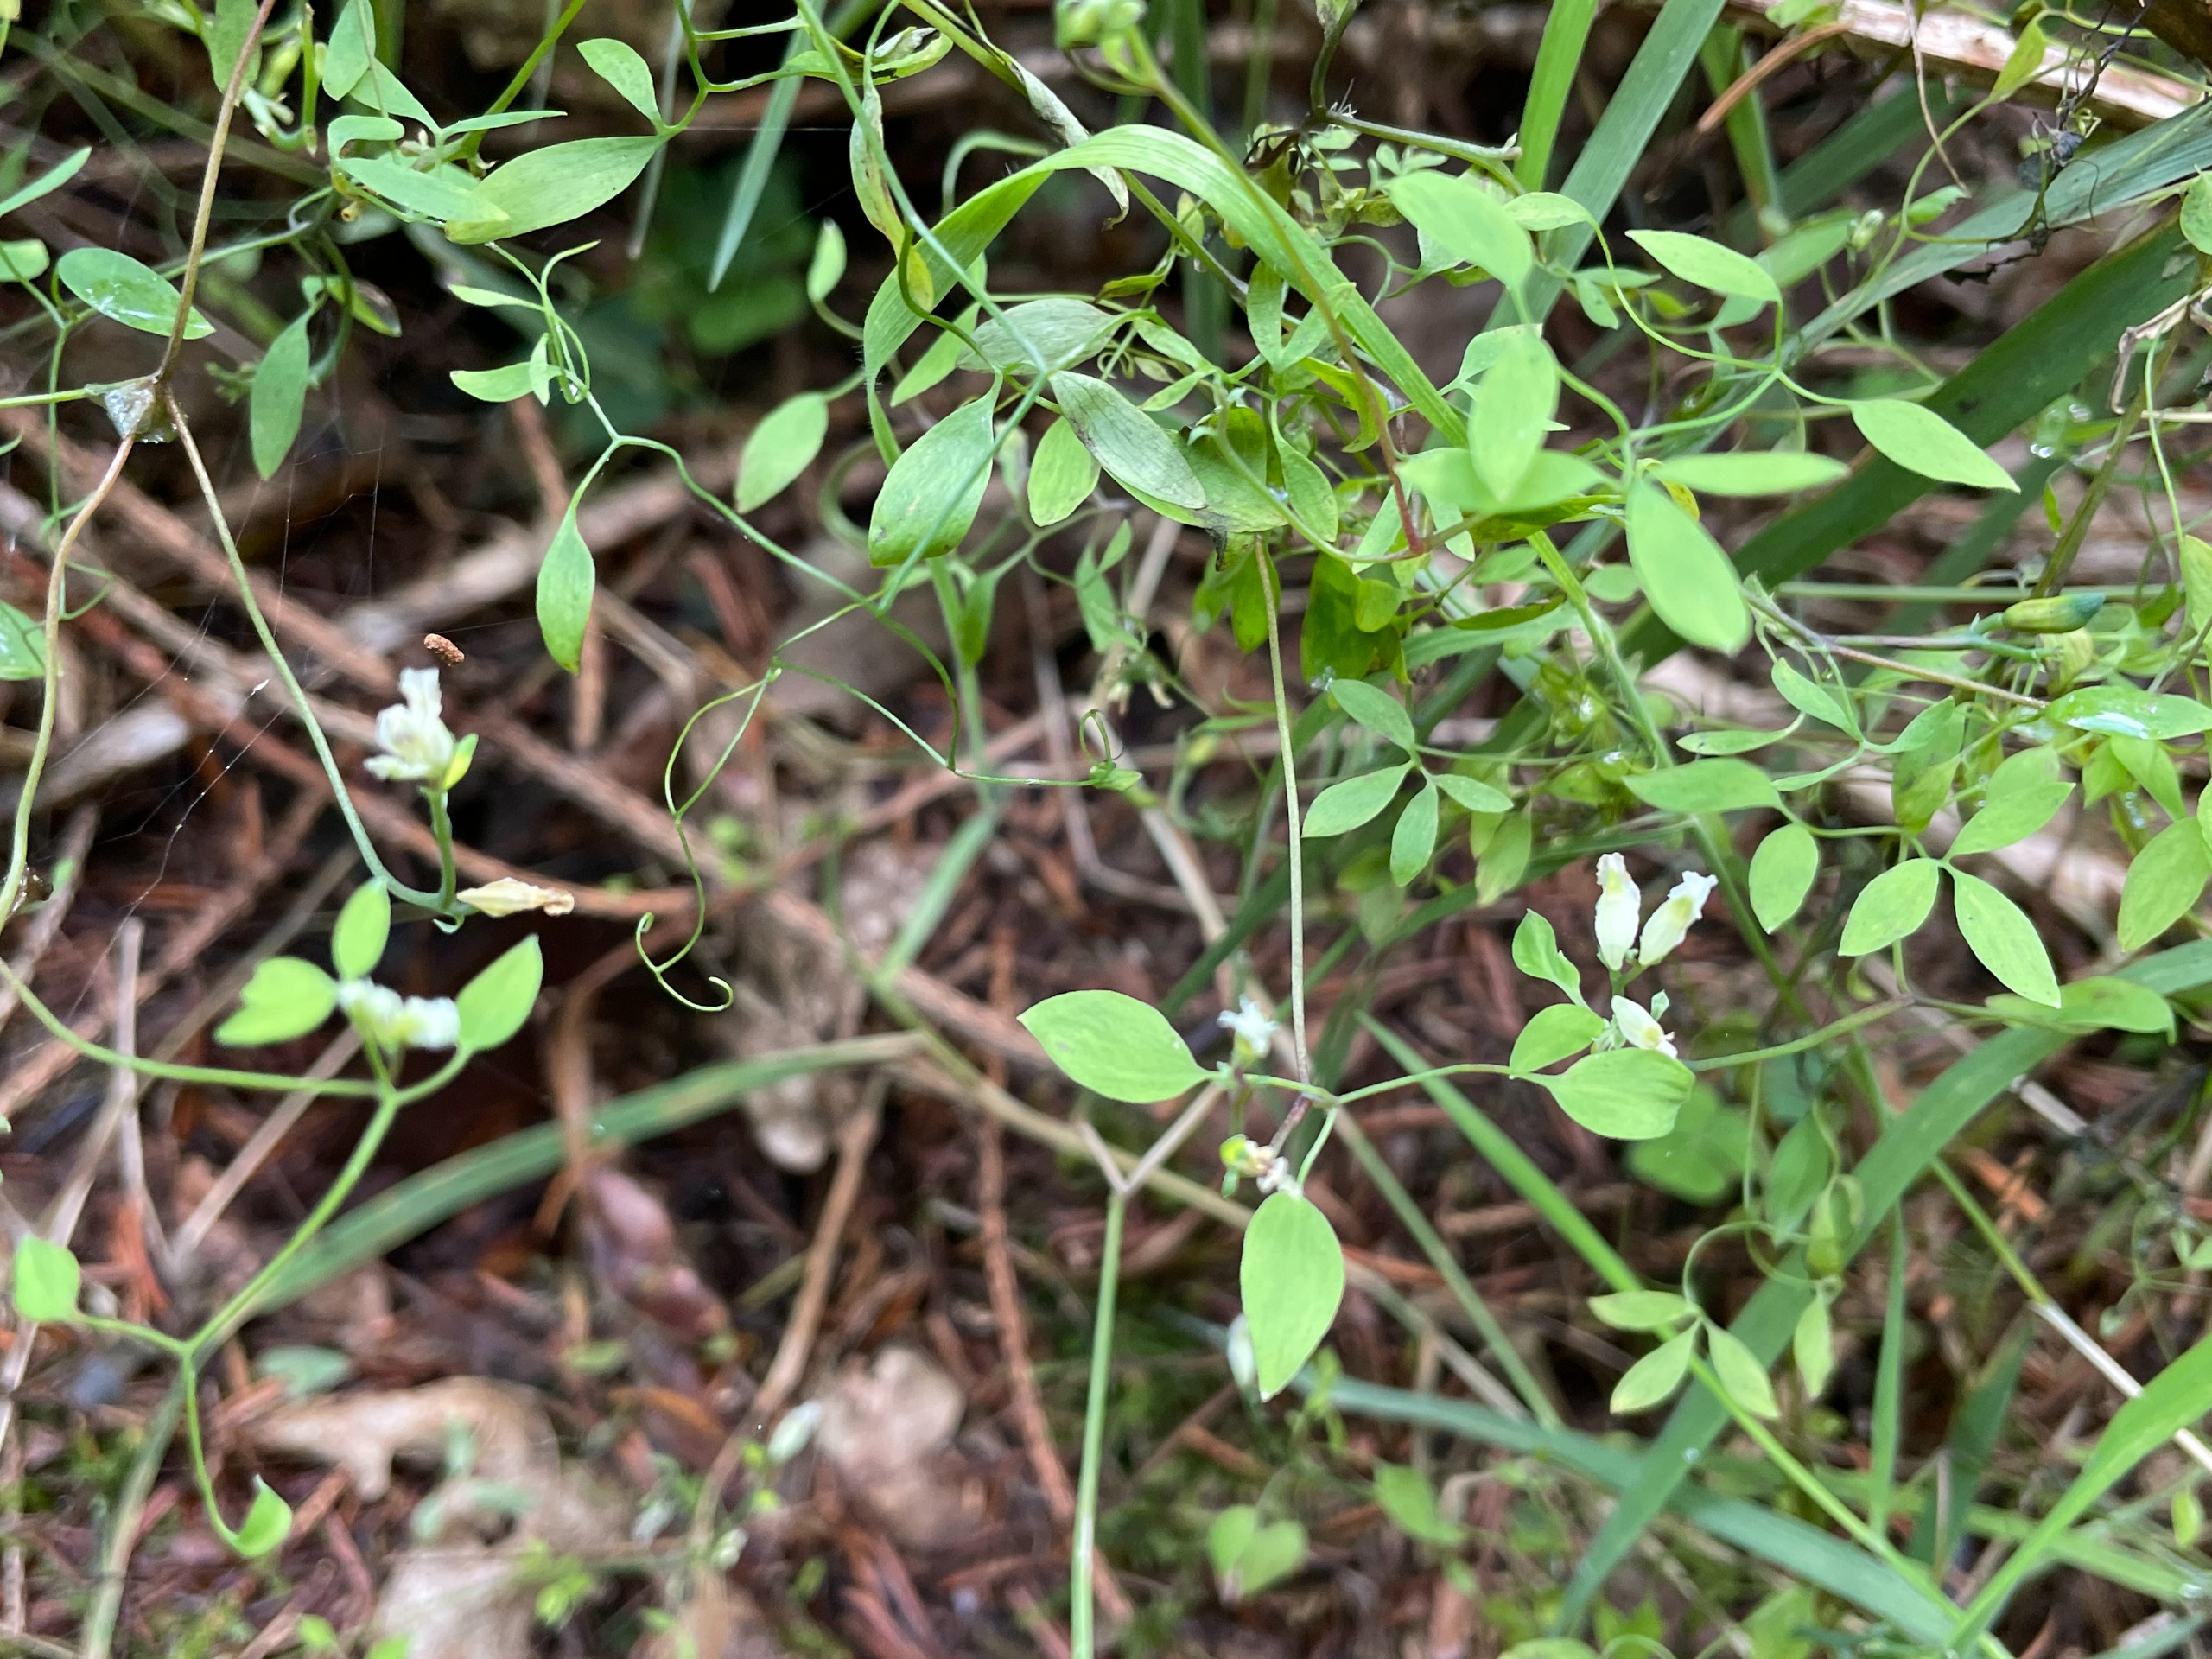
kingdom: Plantae
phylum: Tracheophyta
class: Magnoliopsida
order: Ranunculales
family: Papaveraceae
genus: Ceratocapnos
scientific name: Ceratocapnos claviculata
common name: Klatrende lærkespore
